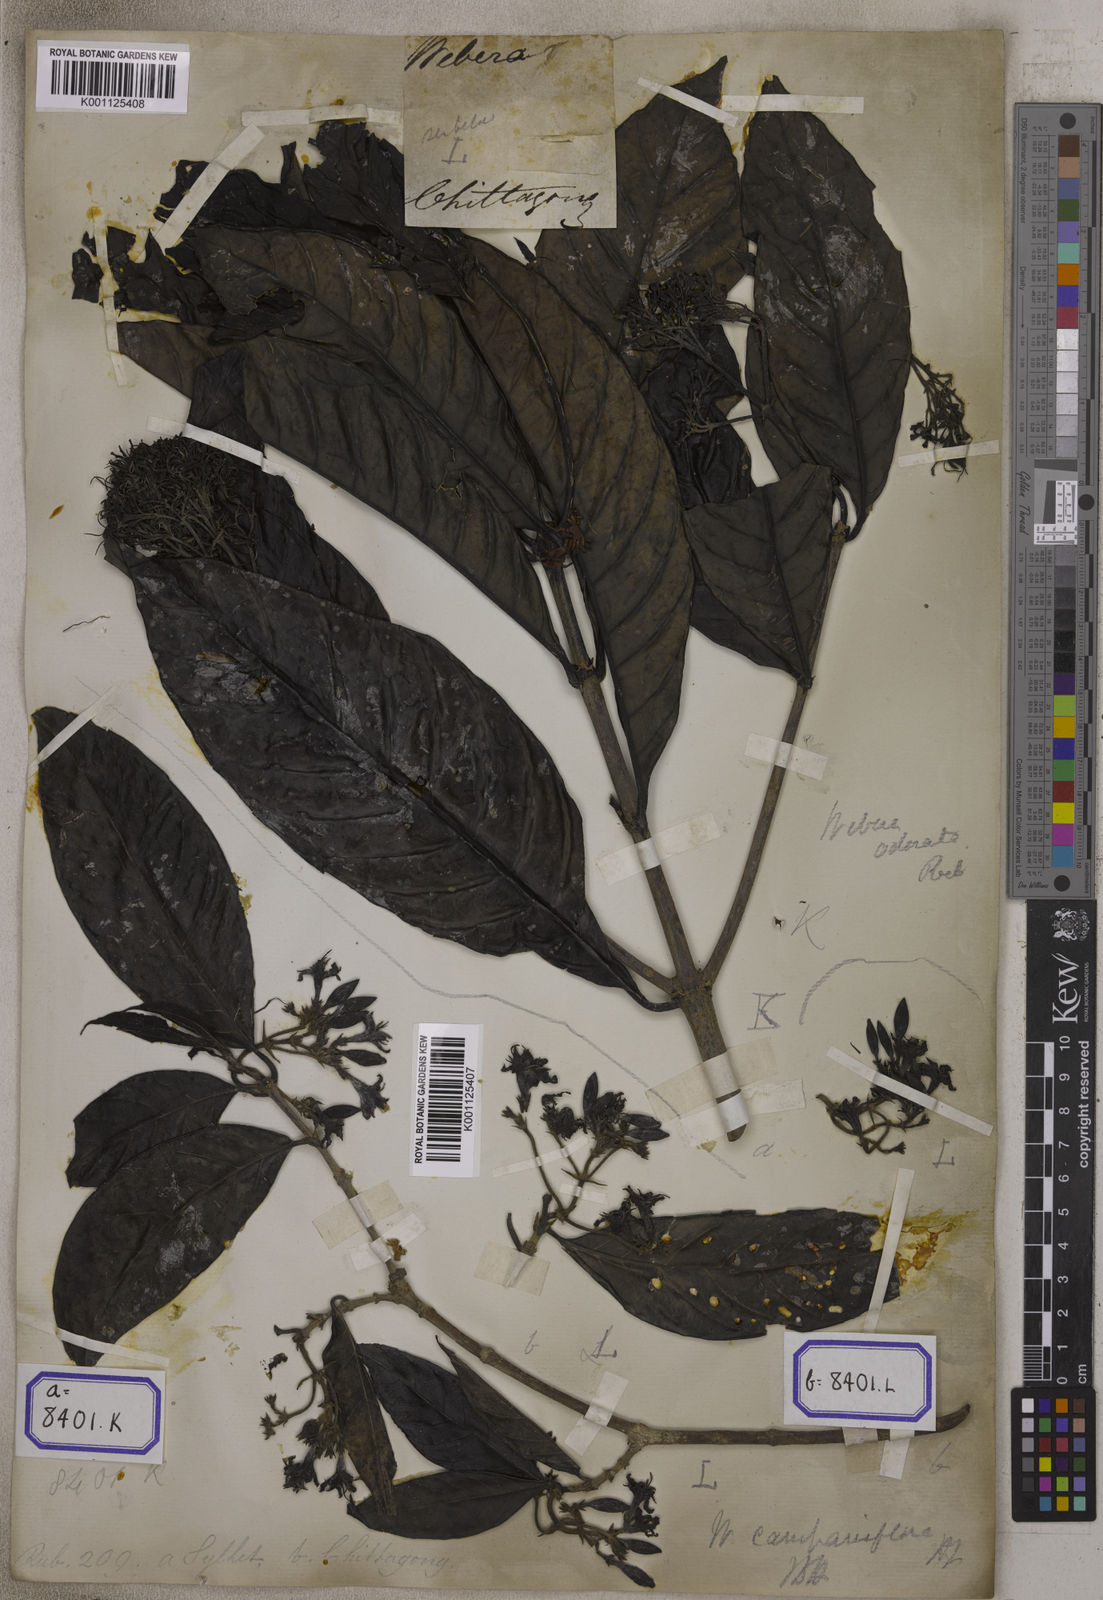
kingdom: Plantae
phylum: Tracheophyta
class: Magnoliopsida
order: Gentianales
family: Rubiaceae
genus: Tarenna
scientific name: Tarenna asiatica
